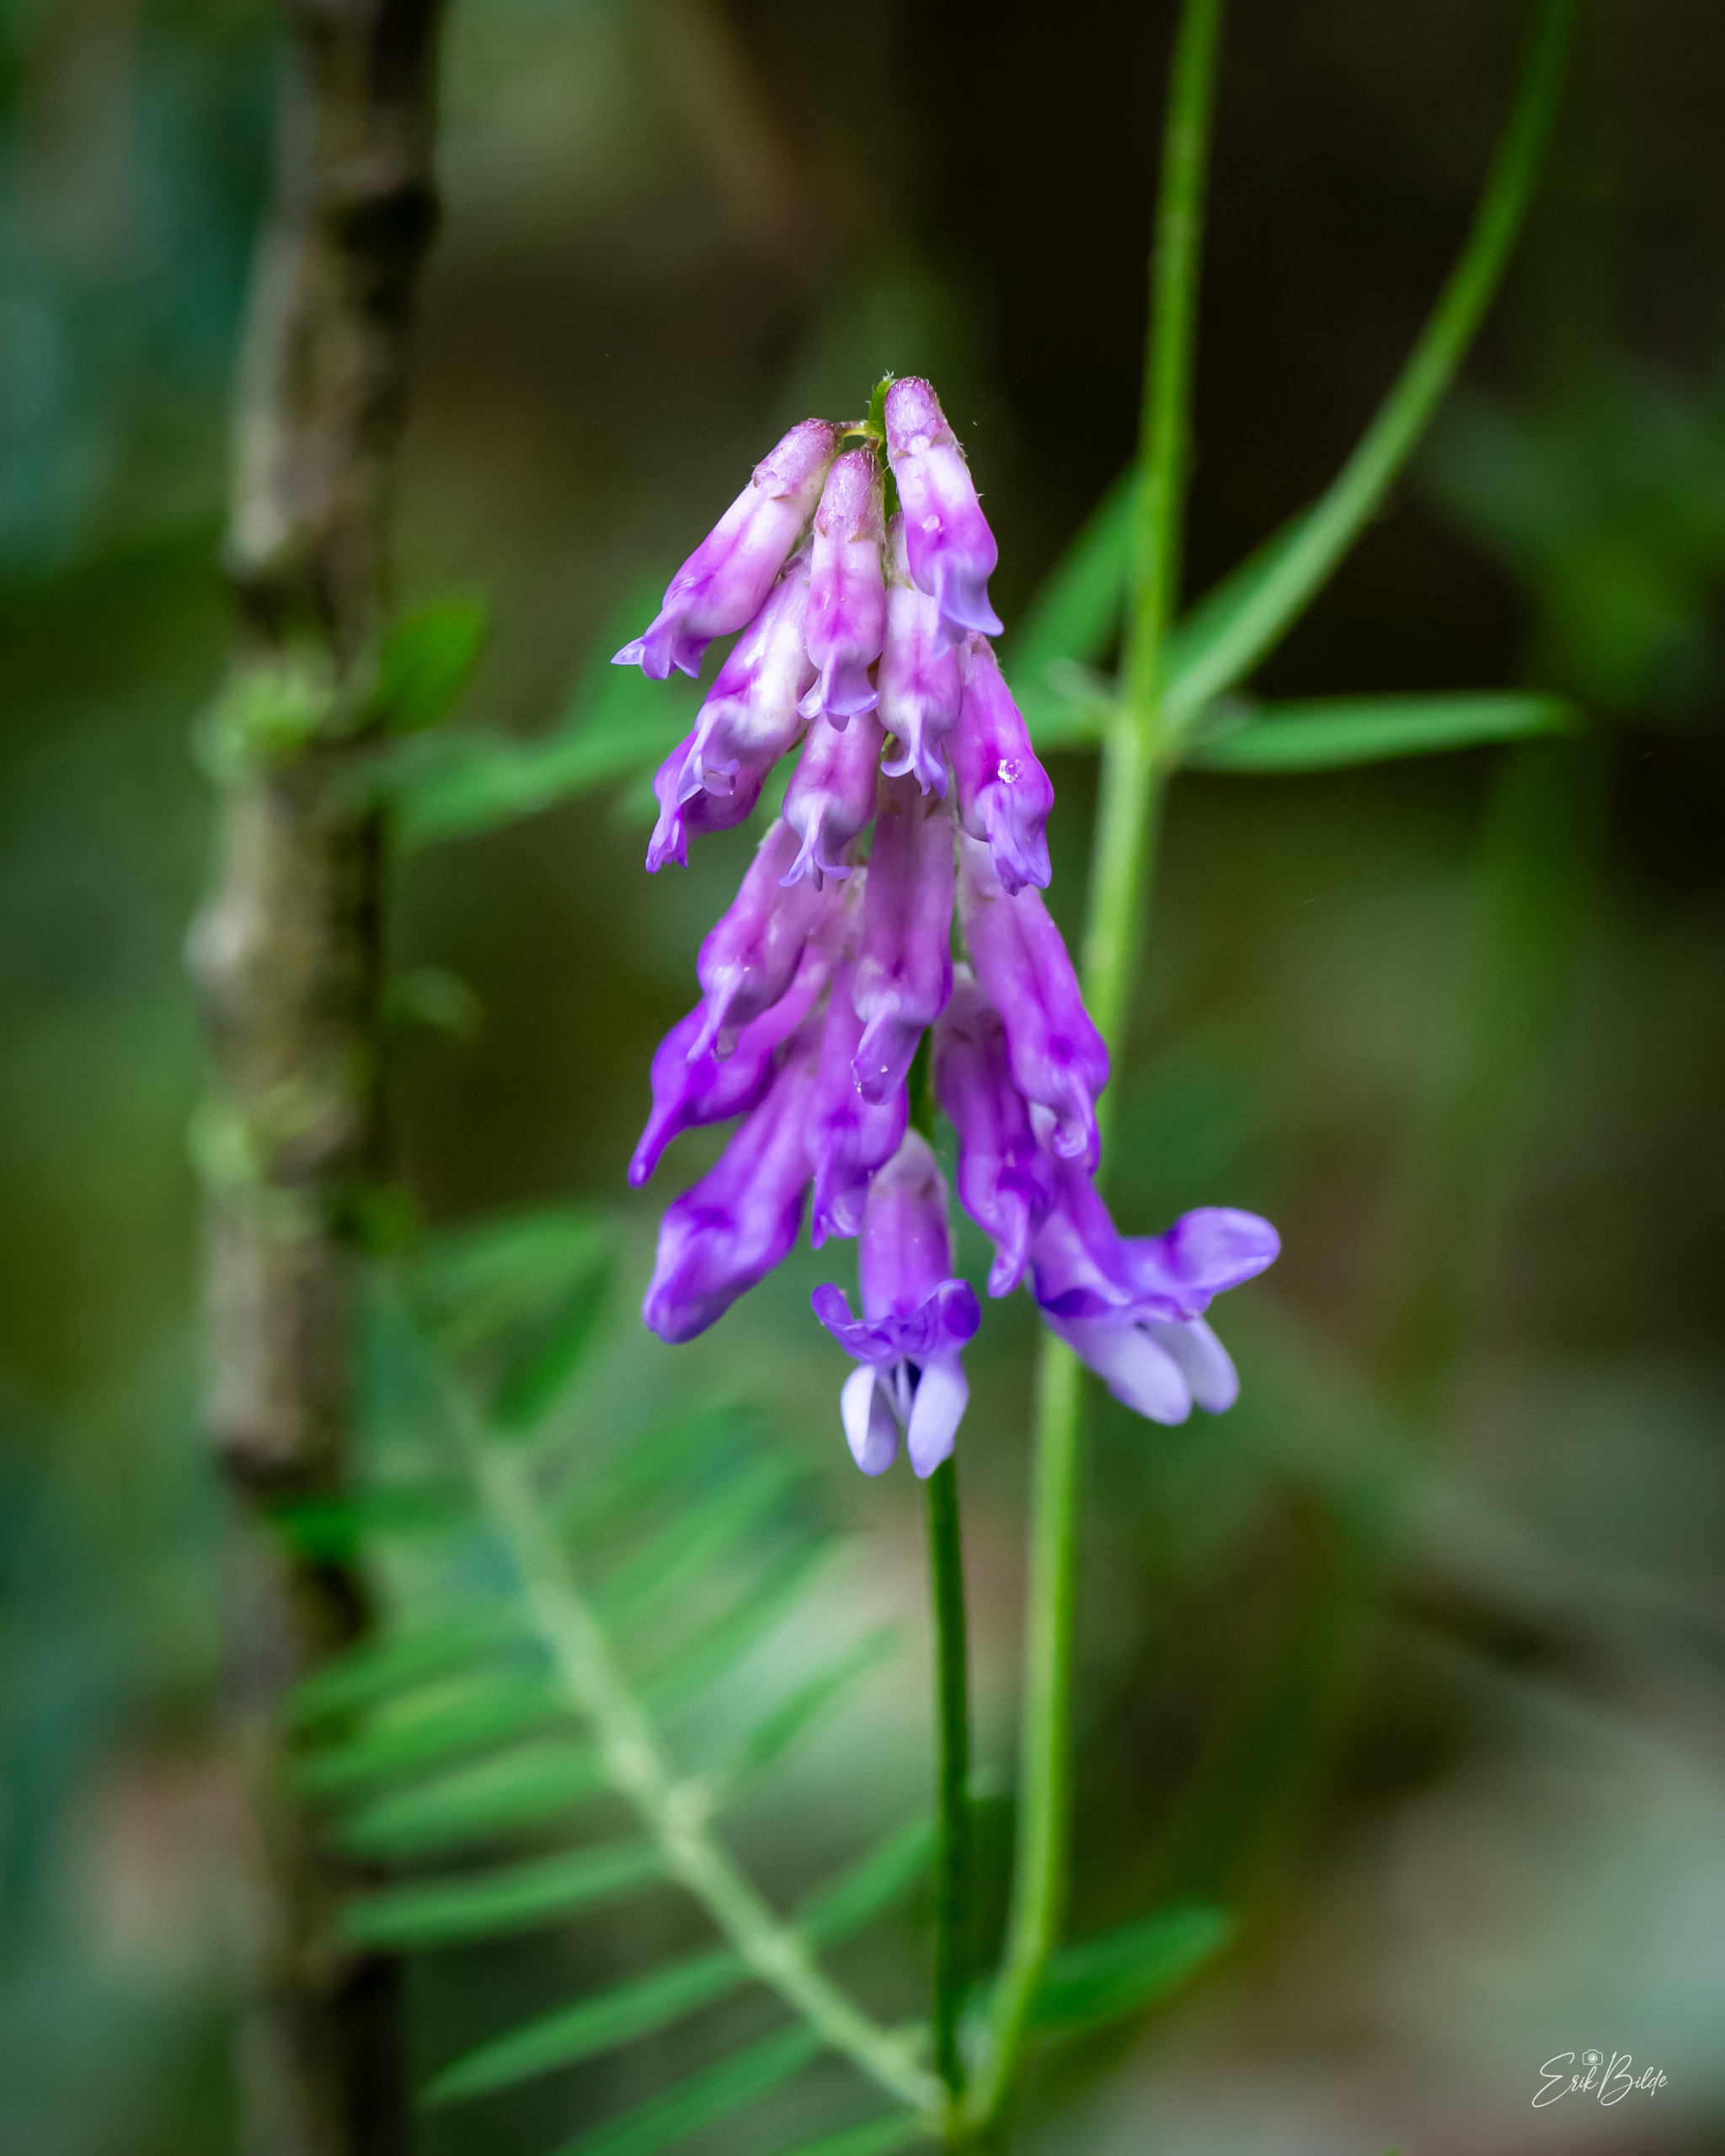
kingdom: Plantae
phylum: Tracheophyta
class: Magnoliopsida
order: Fabales
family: Fabaceae
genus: Vicia
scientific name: Vicia cracca
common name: Muse-vikke
